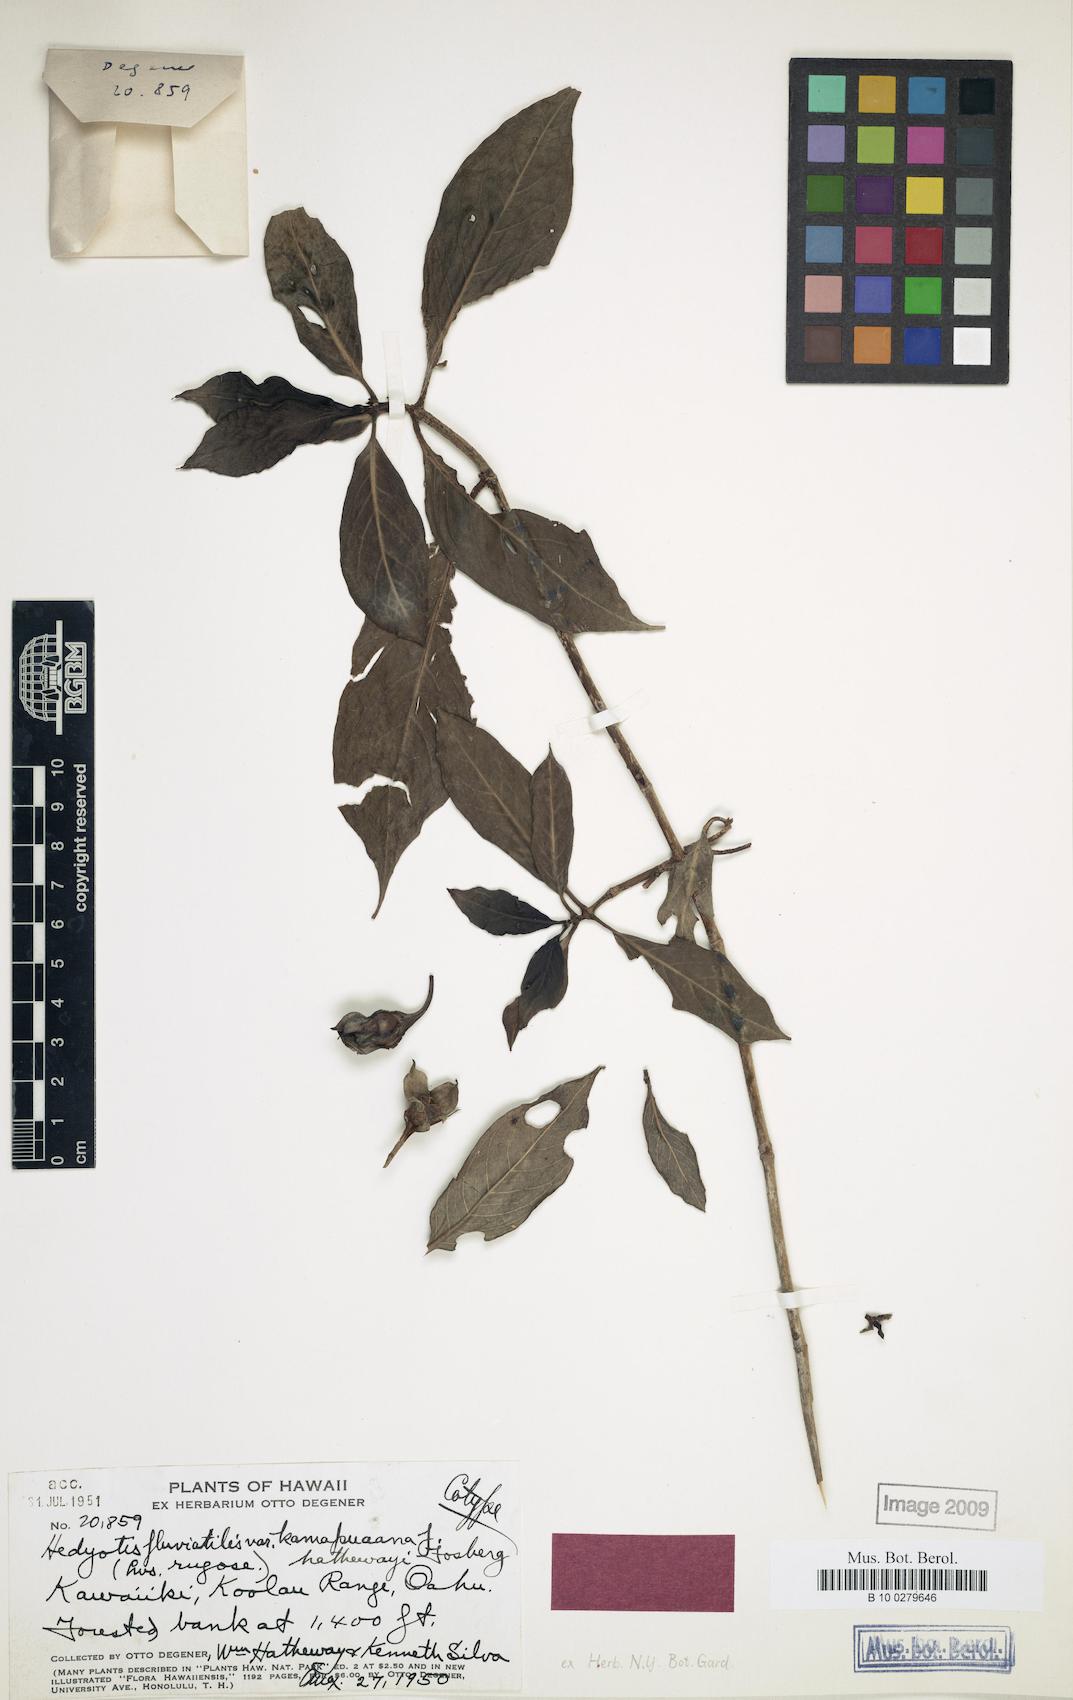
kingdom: Plantae
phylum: Tracheophyta
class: Magnoliopsida
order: Gentianales
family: Rubiaceae
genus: Kadua
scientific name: Kadua fluviatilis
